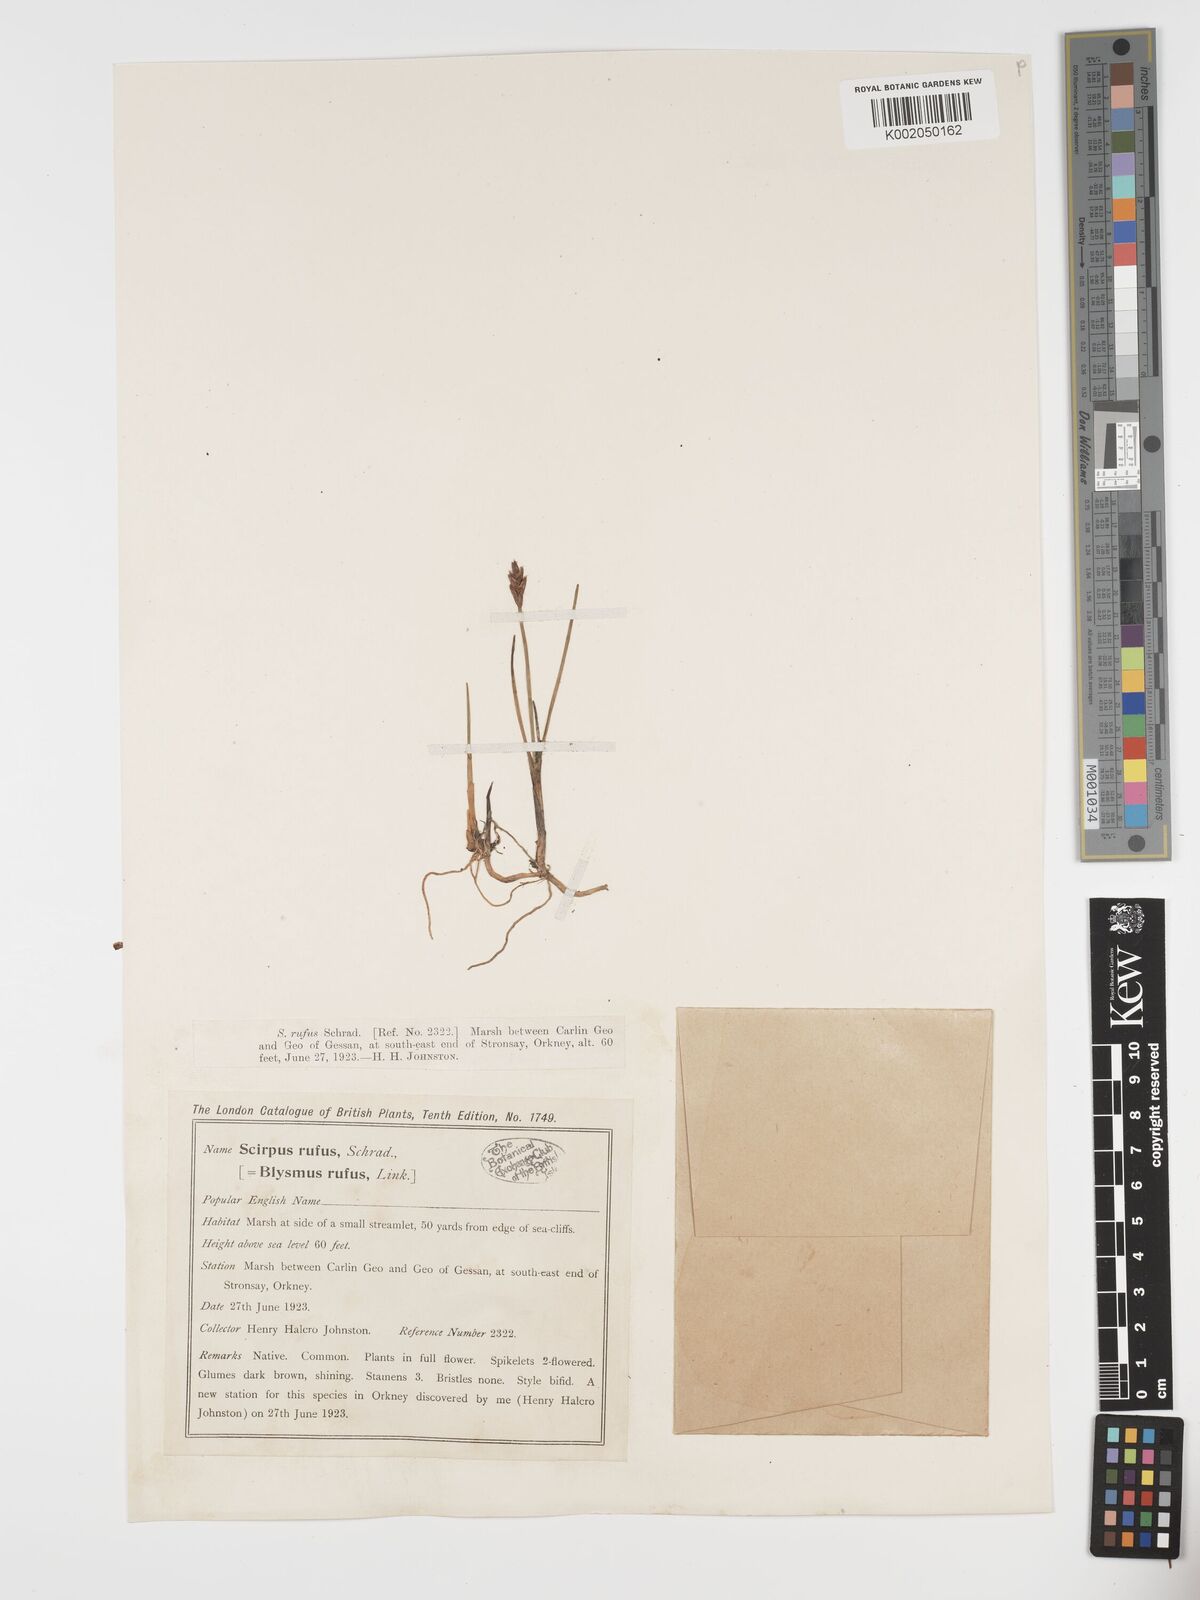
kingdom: Plantae
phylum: Tracheophyta
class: Liliopsida
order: Poales
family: Cyperaceae
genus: Blysmus
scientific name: Blysmus rufus
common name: Saltmarsh flat-sedge
